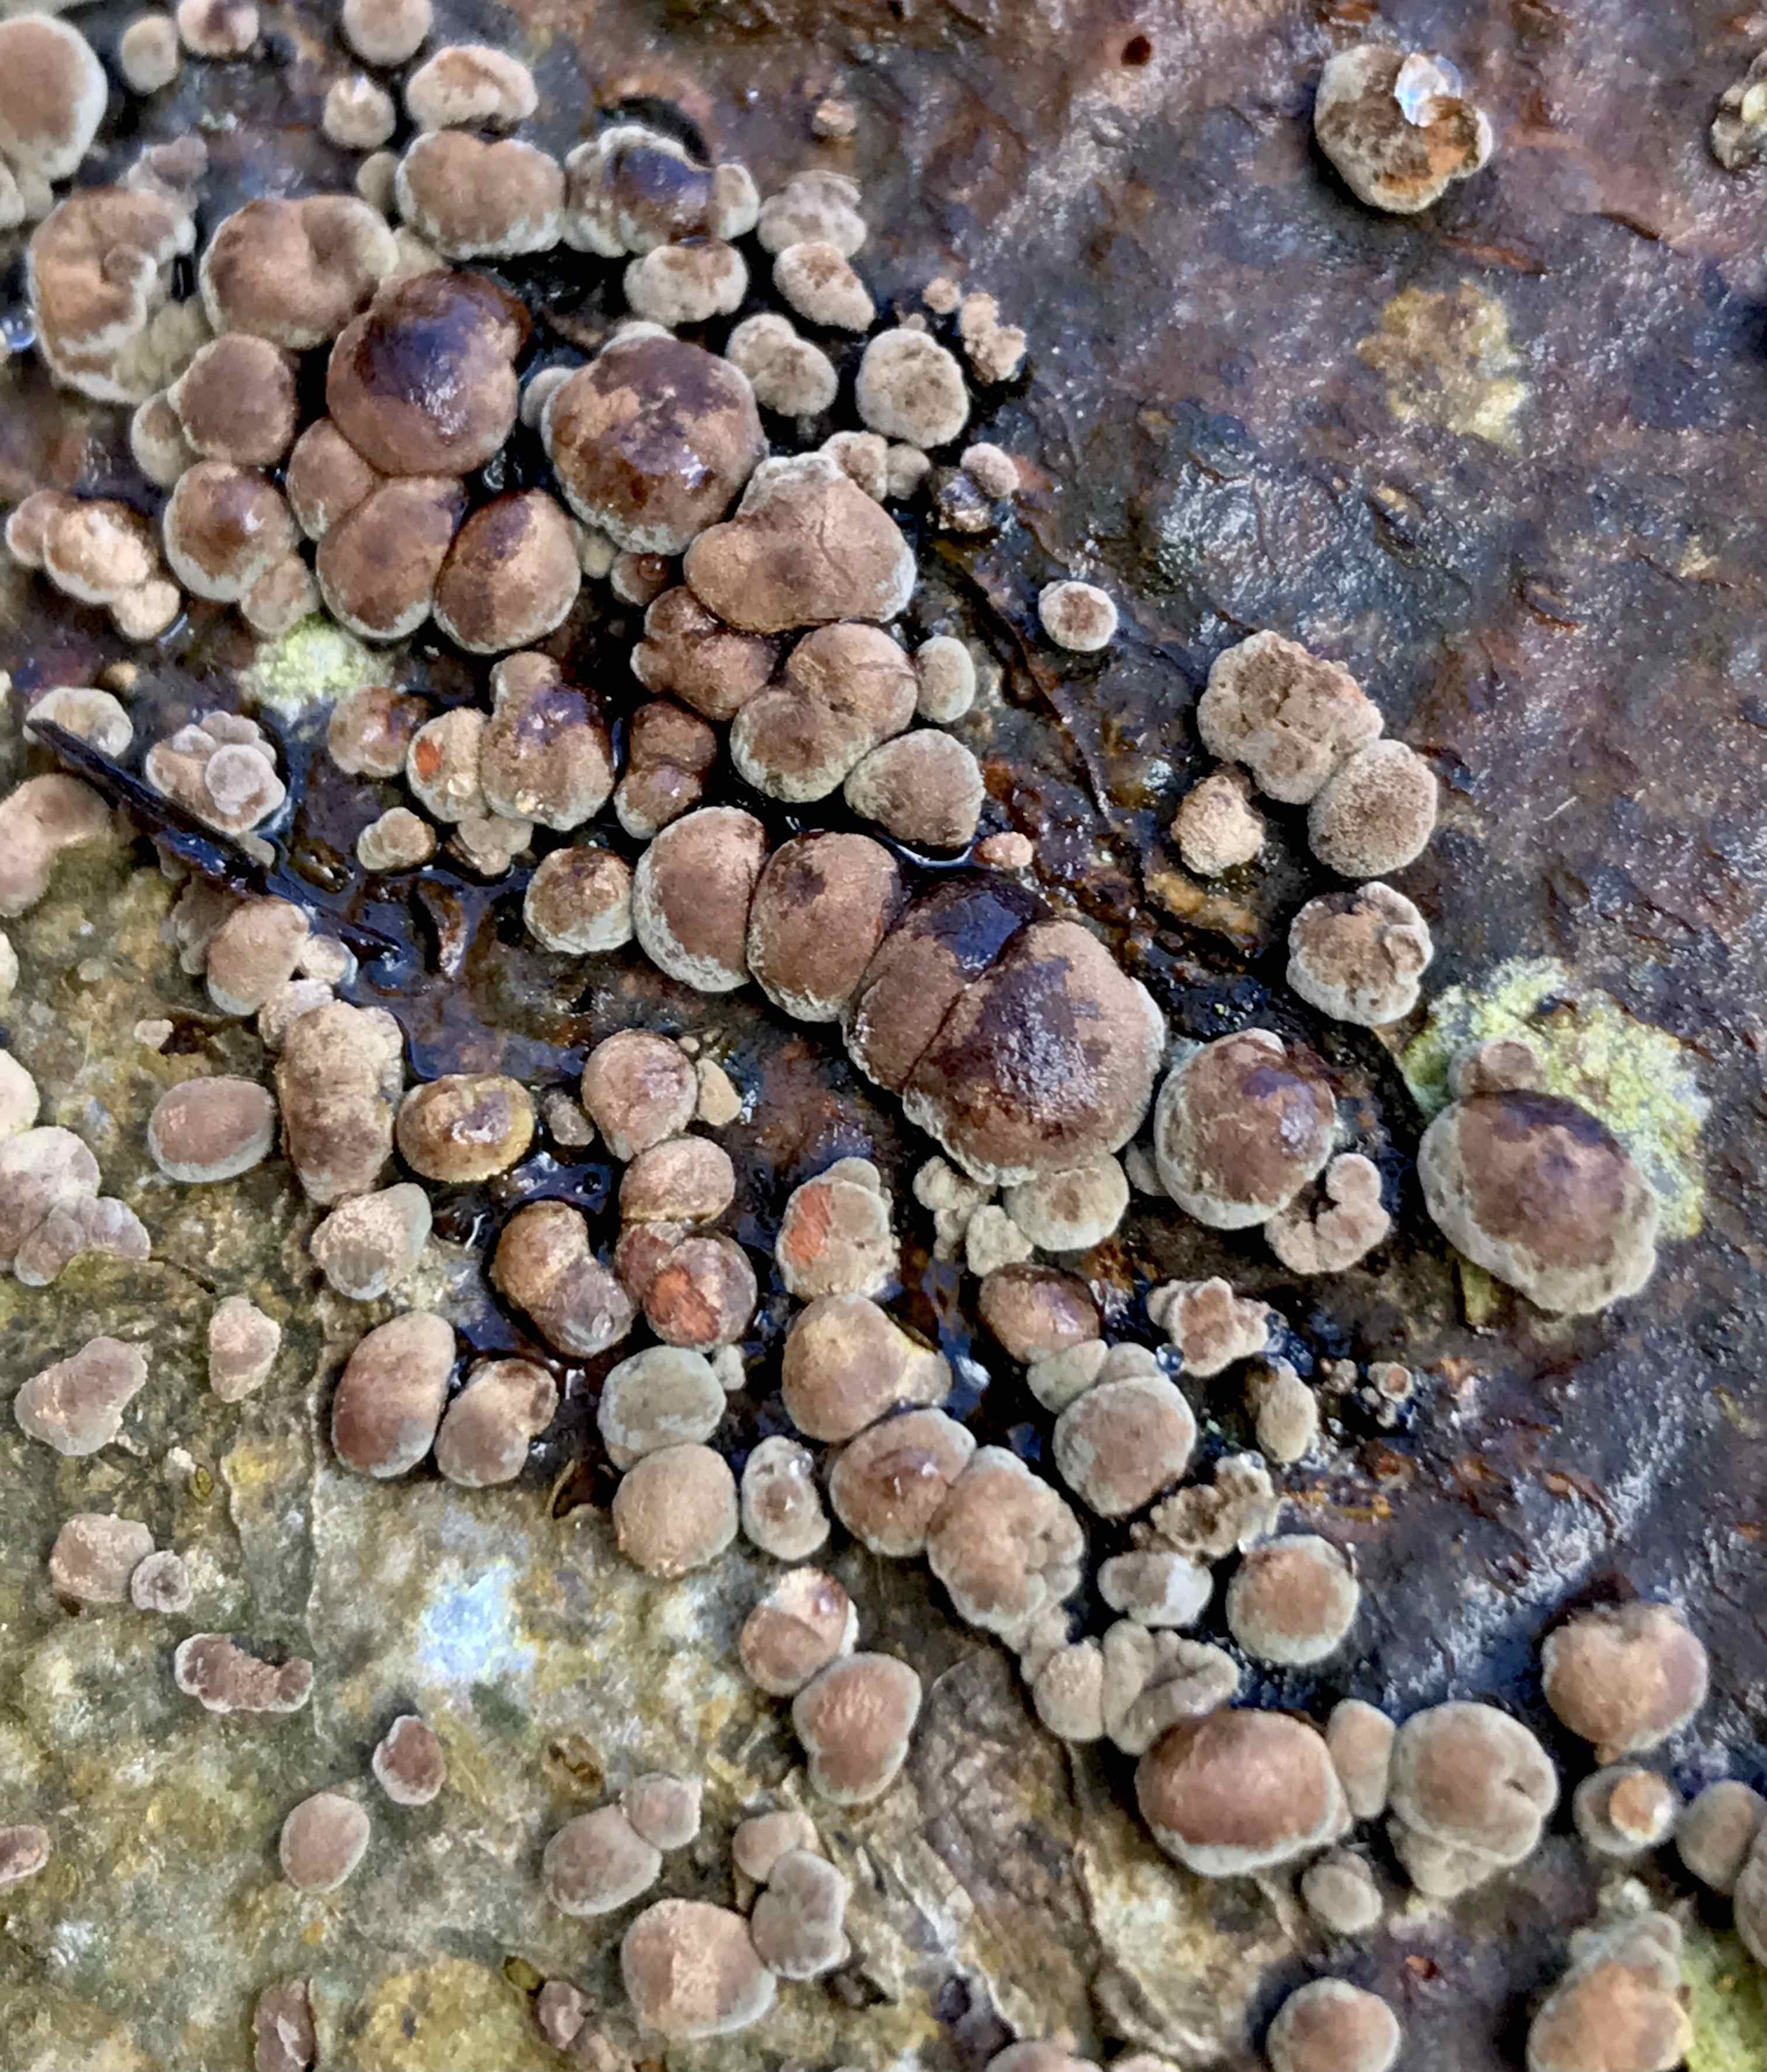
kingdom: Fungi
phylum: Ascomycota
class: Sordariomycetes
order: Xylariales
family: Hypoxylaceae
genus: Hypoxylon
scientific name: Hypoxylon fragiforme
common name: kuljordbær
